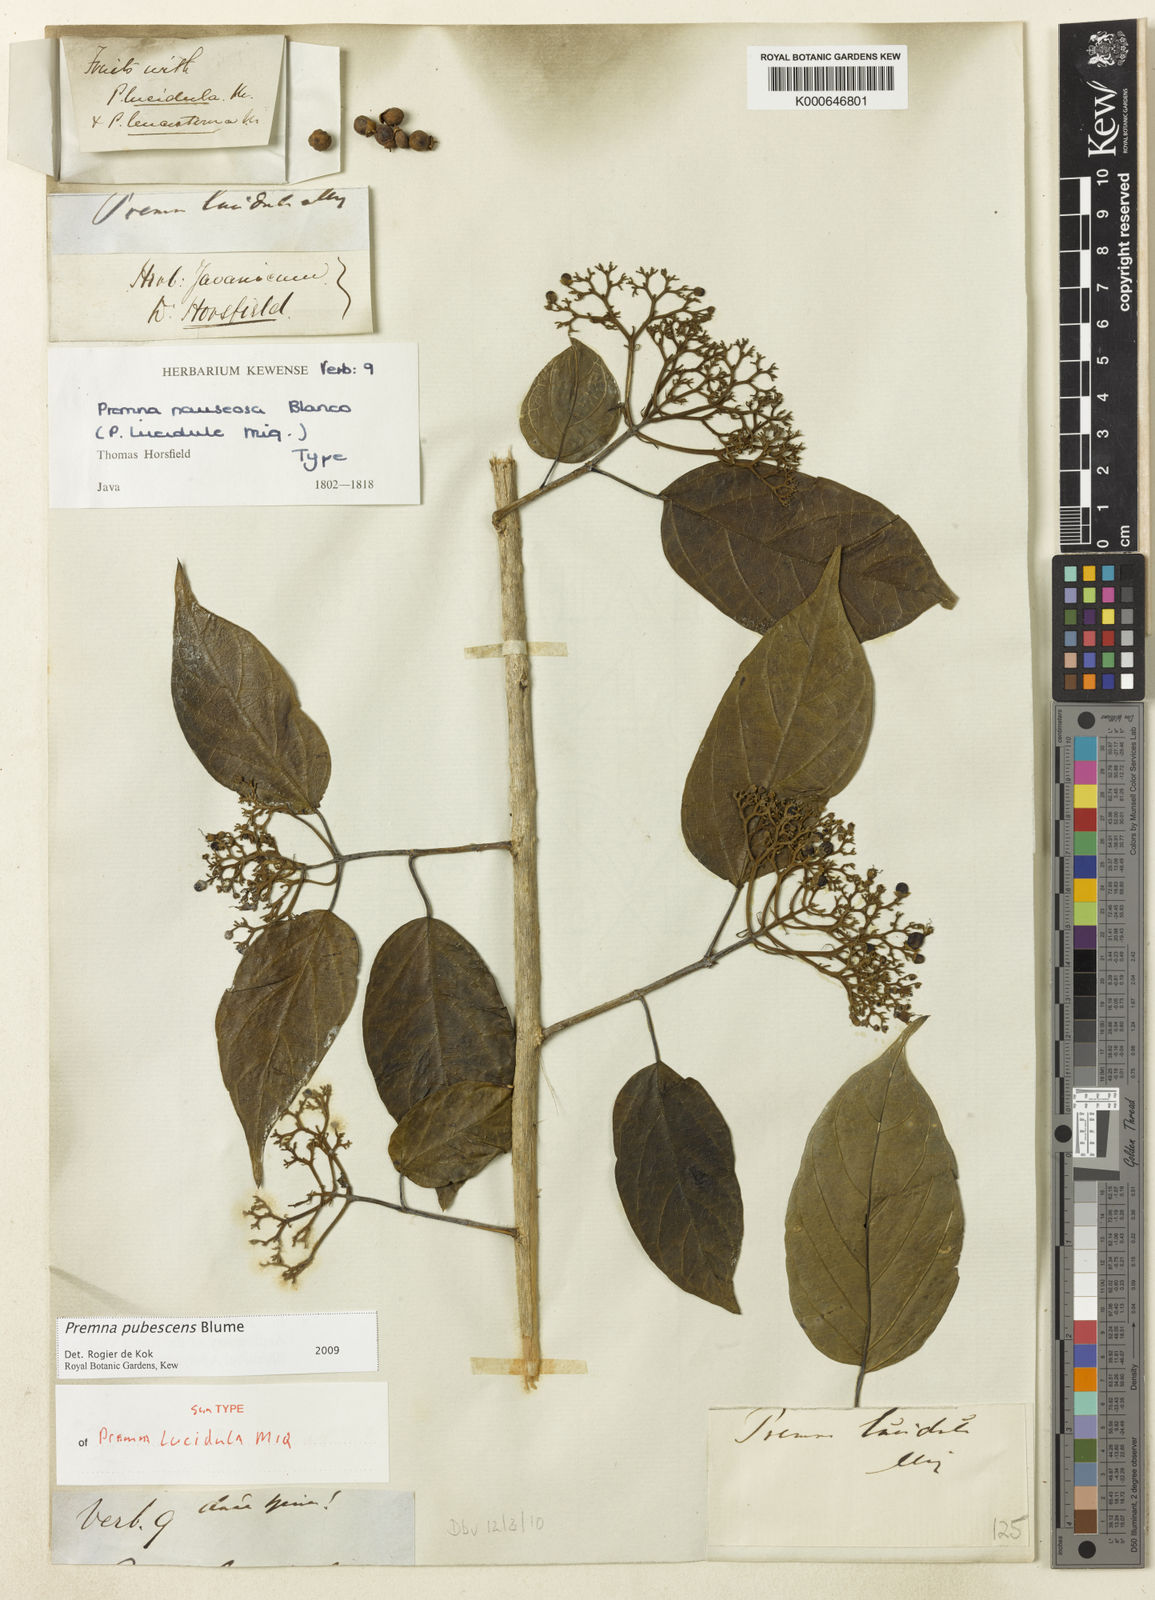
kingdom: Plantae
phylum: Tracheophyta
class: Magnoliopsida
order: Lamiales
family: Lamiaceae
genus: Premna
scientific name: Premna pubescens
